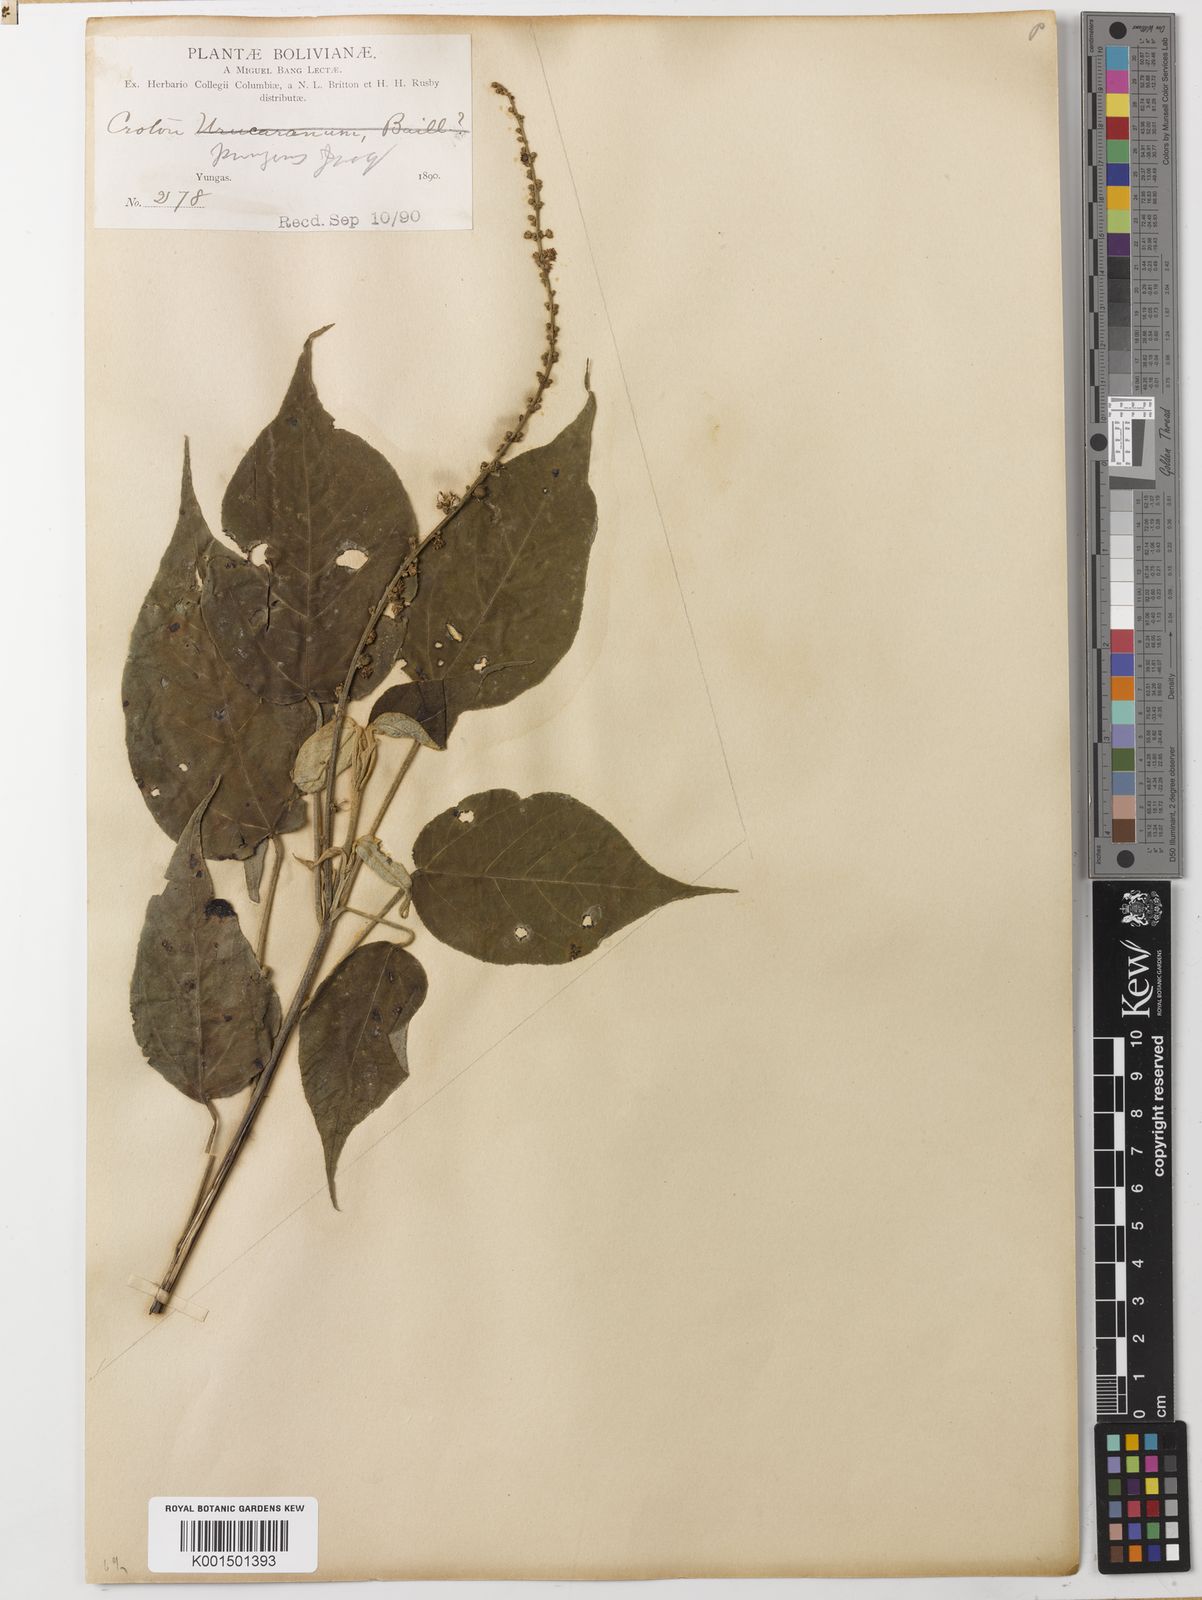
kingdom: Plantae
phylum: Tracheophyta
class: Magnoliopsida
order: Malpighiales
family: Euphorbiaceae
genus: Croton
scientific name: Croton pungens
